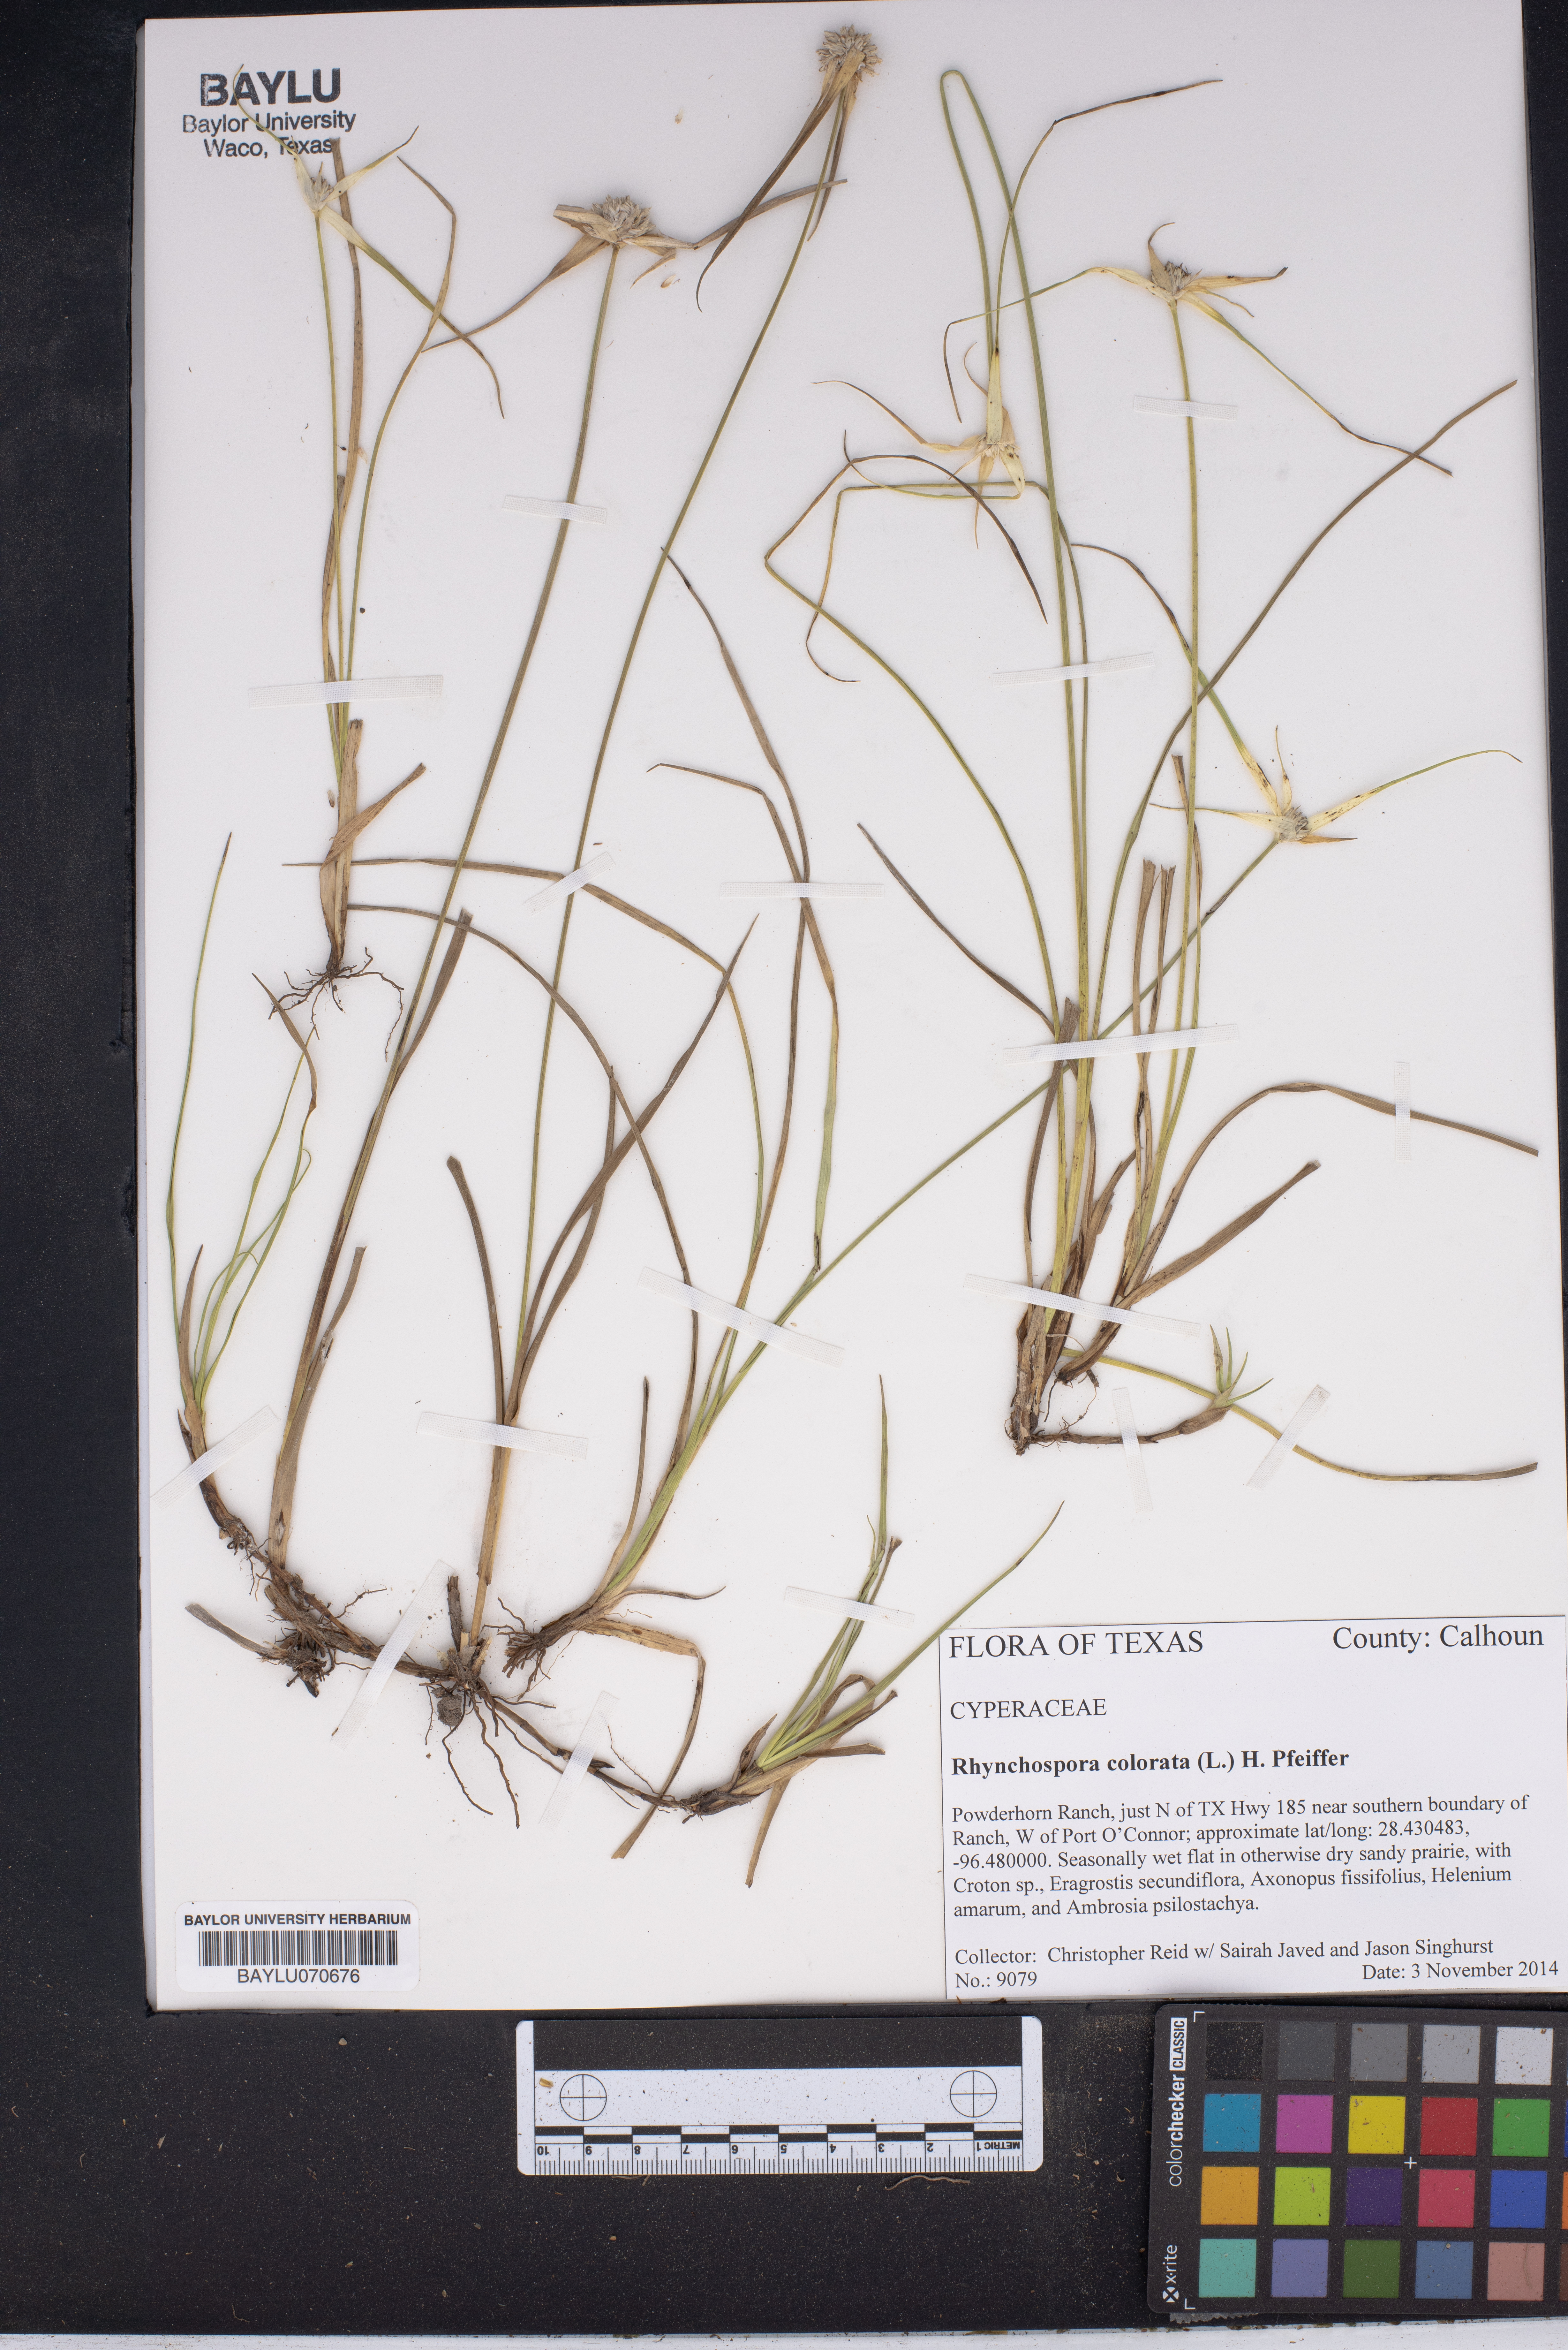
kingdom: Plantae
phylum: Tracheophyta
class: Liliopsida
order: Poales
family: Cyperaceae
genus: Rhynchospora
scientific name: Rhynchospora colorata
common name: Star sedge
